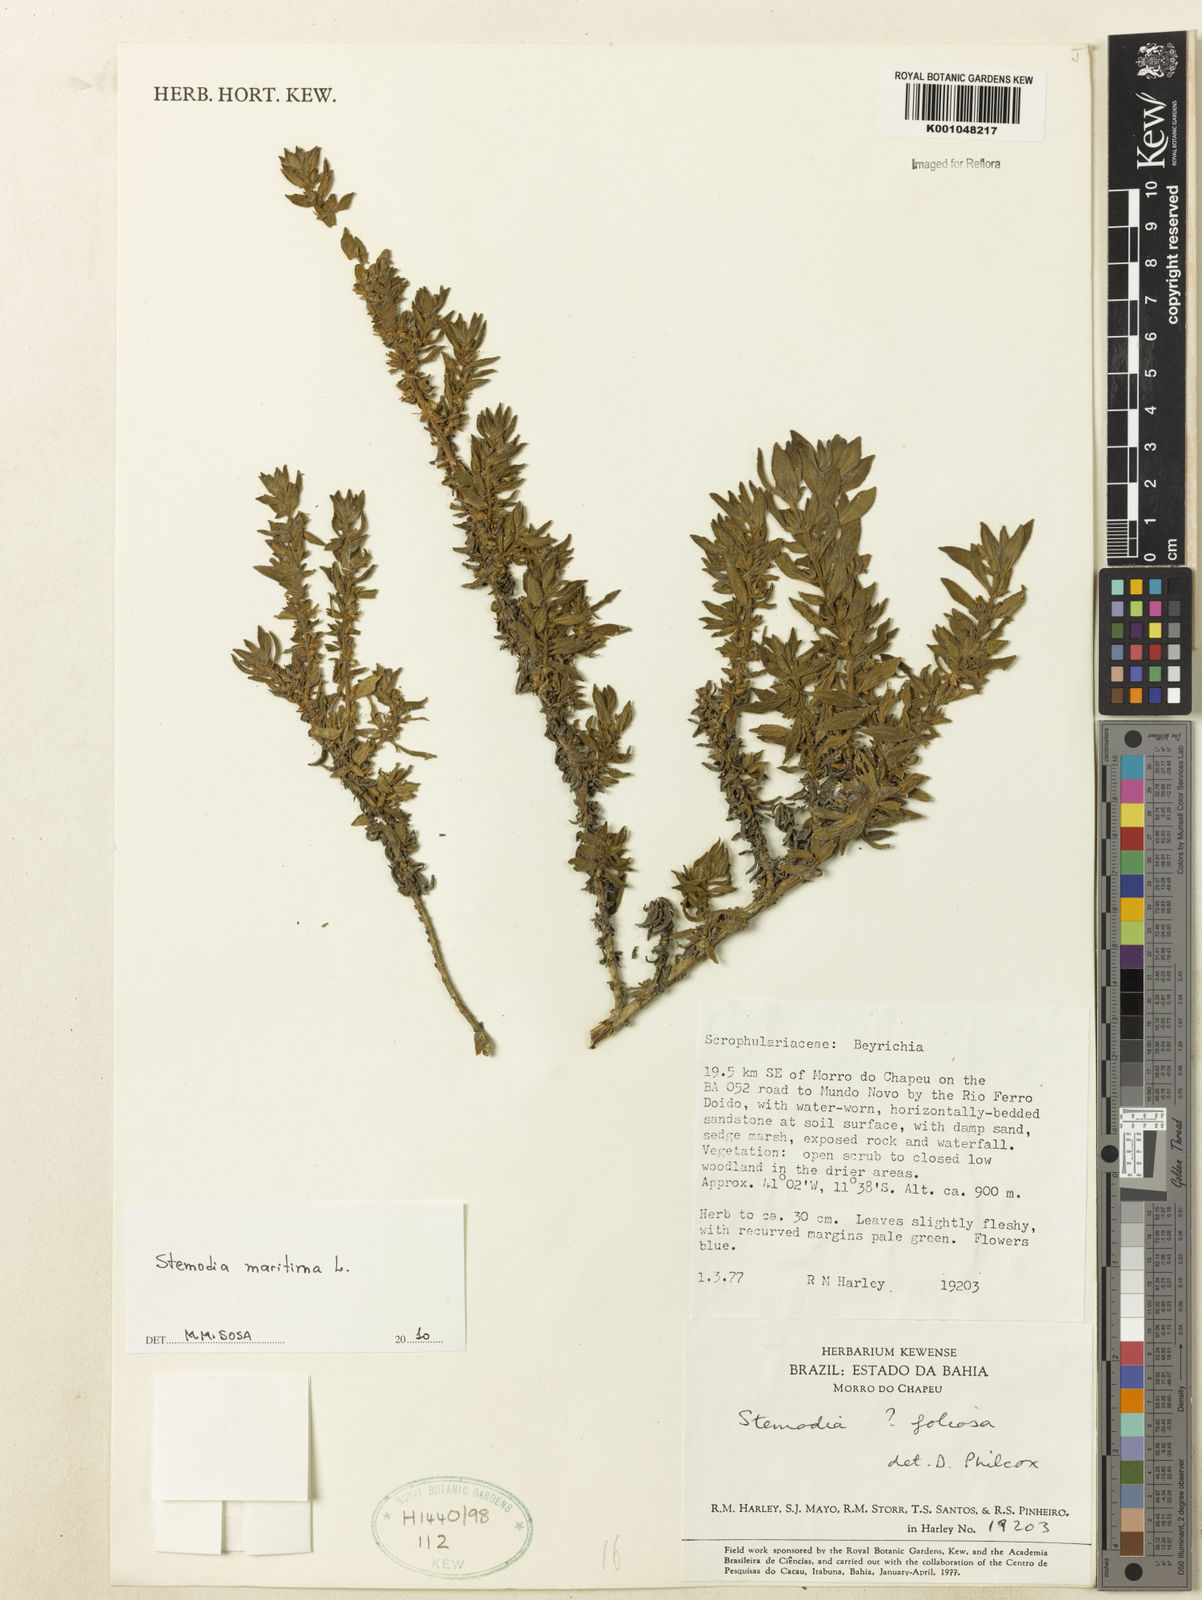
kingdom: Plantae
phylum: Tracheophyta
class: Magnoliopsida
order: Lamiales
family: Plantaginaceae
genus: Stemodia
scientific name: Stemodia maritima
